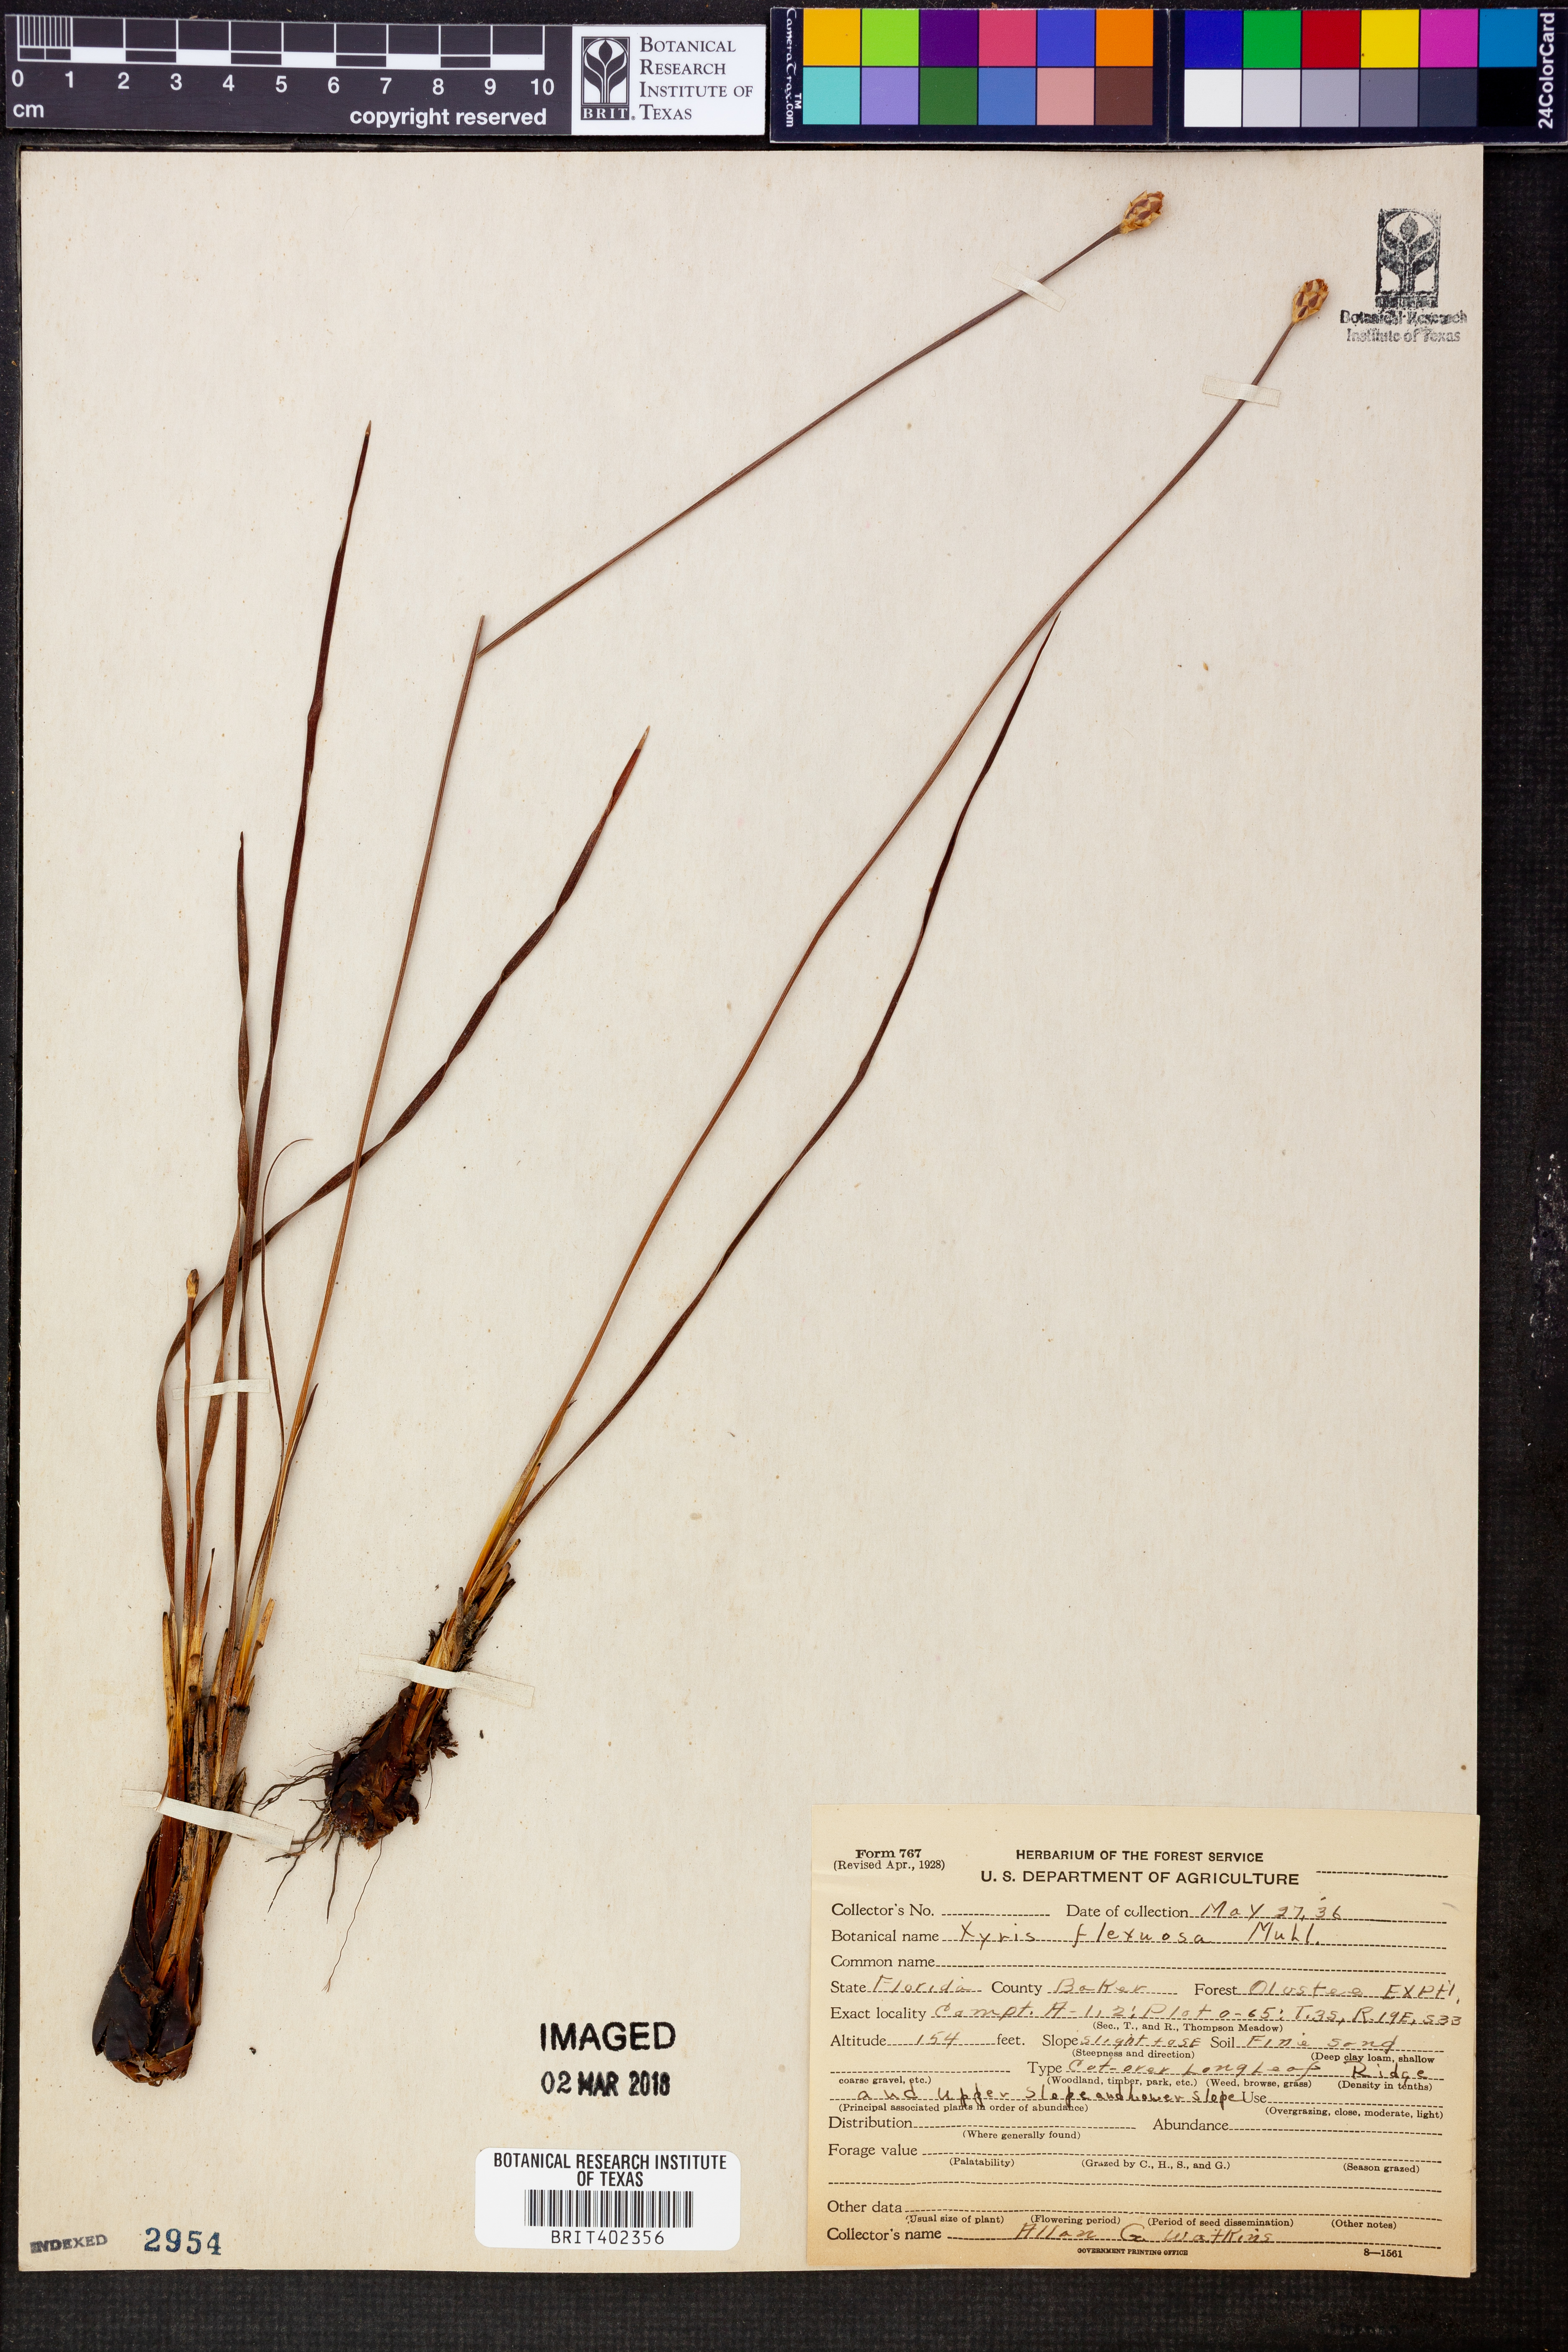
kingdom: Plantae
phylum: Tracheophyta
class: Liliopsida
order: Poales
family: Xyridaceae
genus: Xyris
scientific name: Xyris flexuosa
